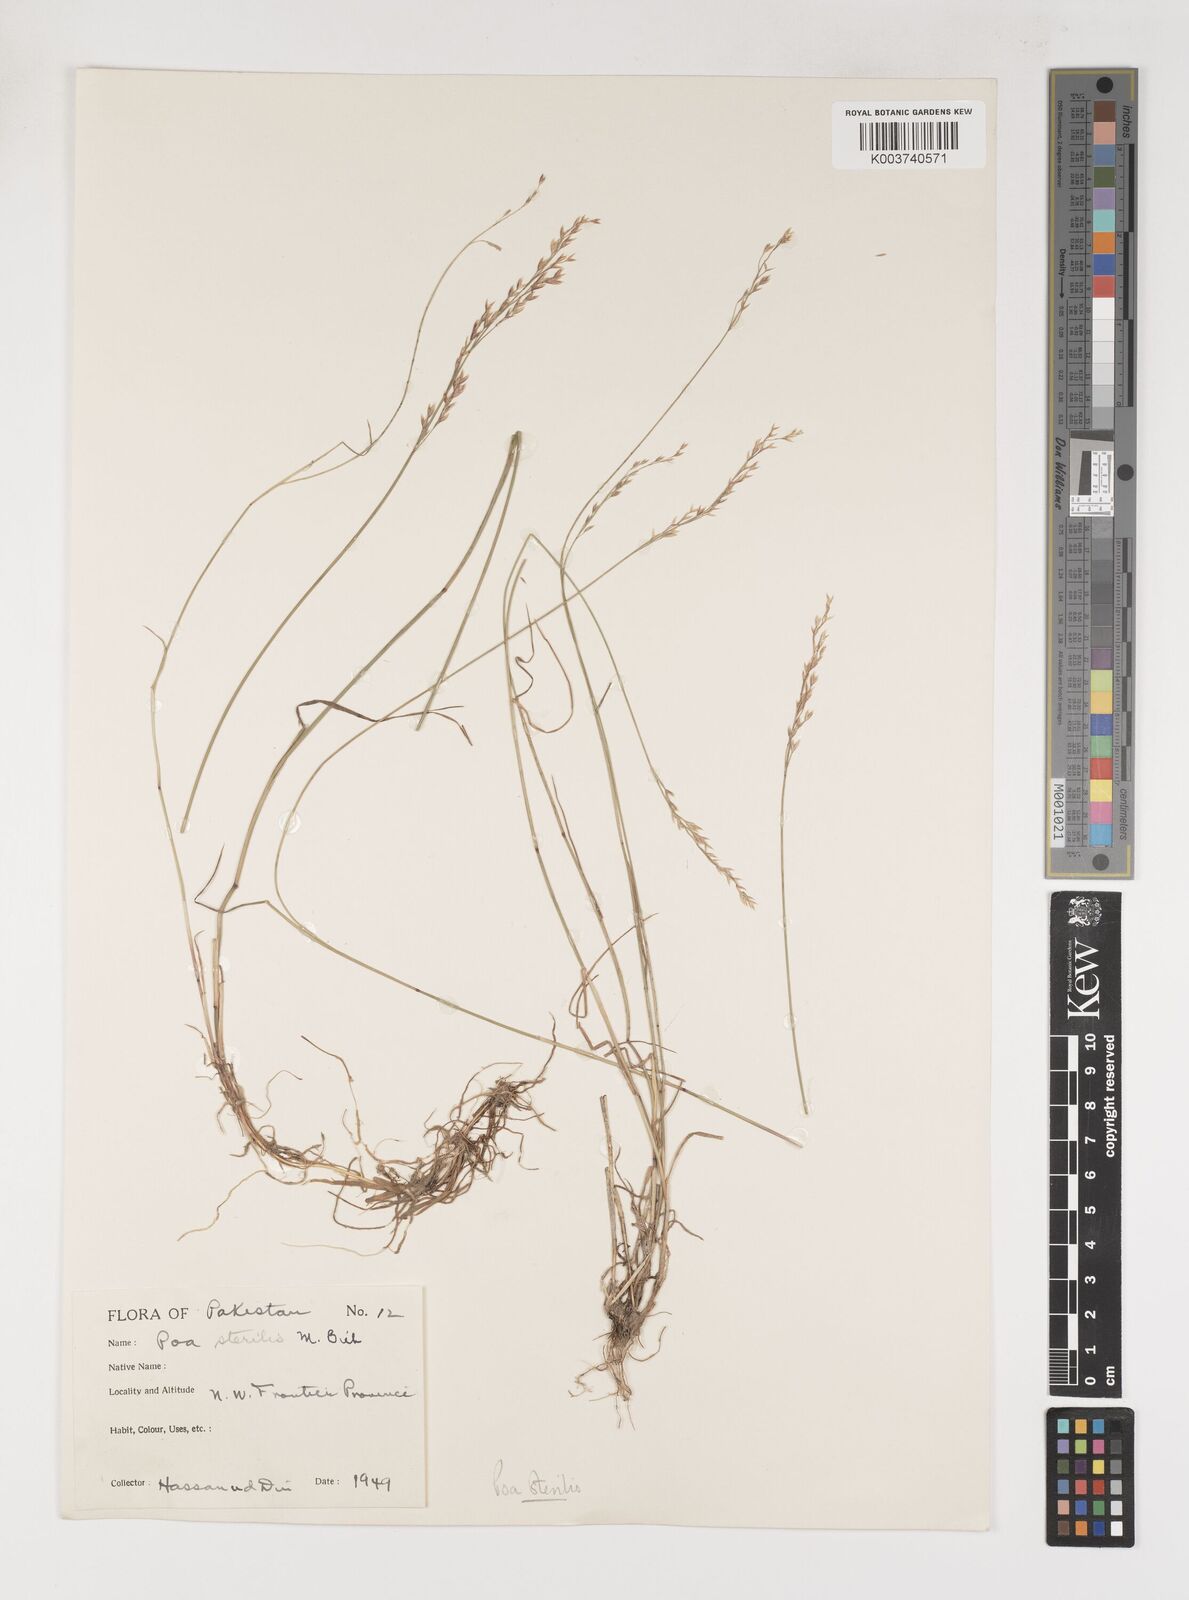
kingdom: Plantae
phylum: Tracheophyta
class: Liliopsida
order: Poales
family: Poaceae
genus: Poa
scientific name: Poa sterilis
